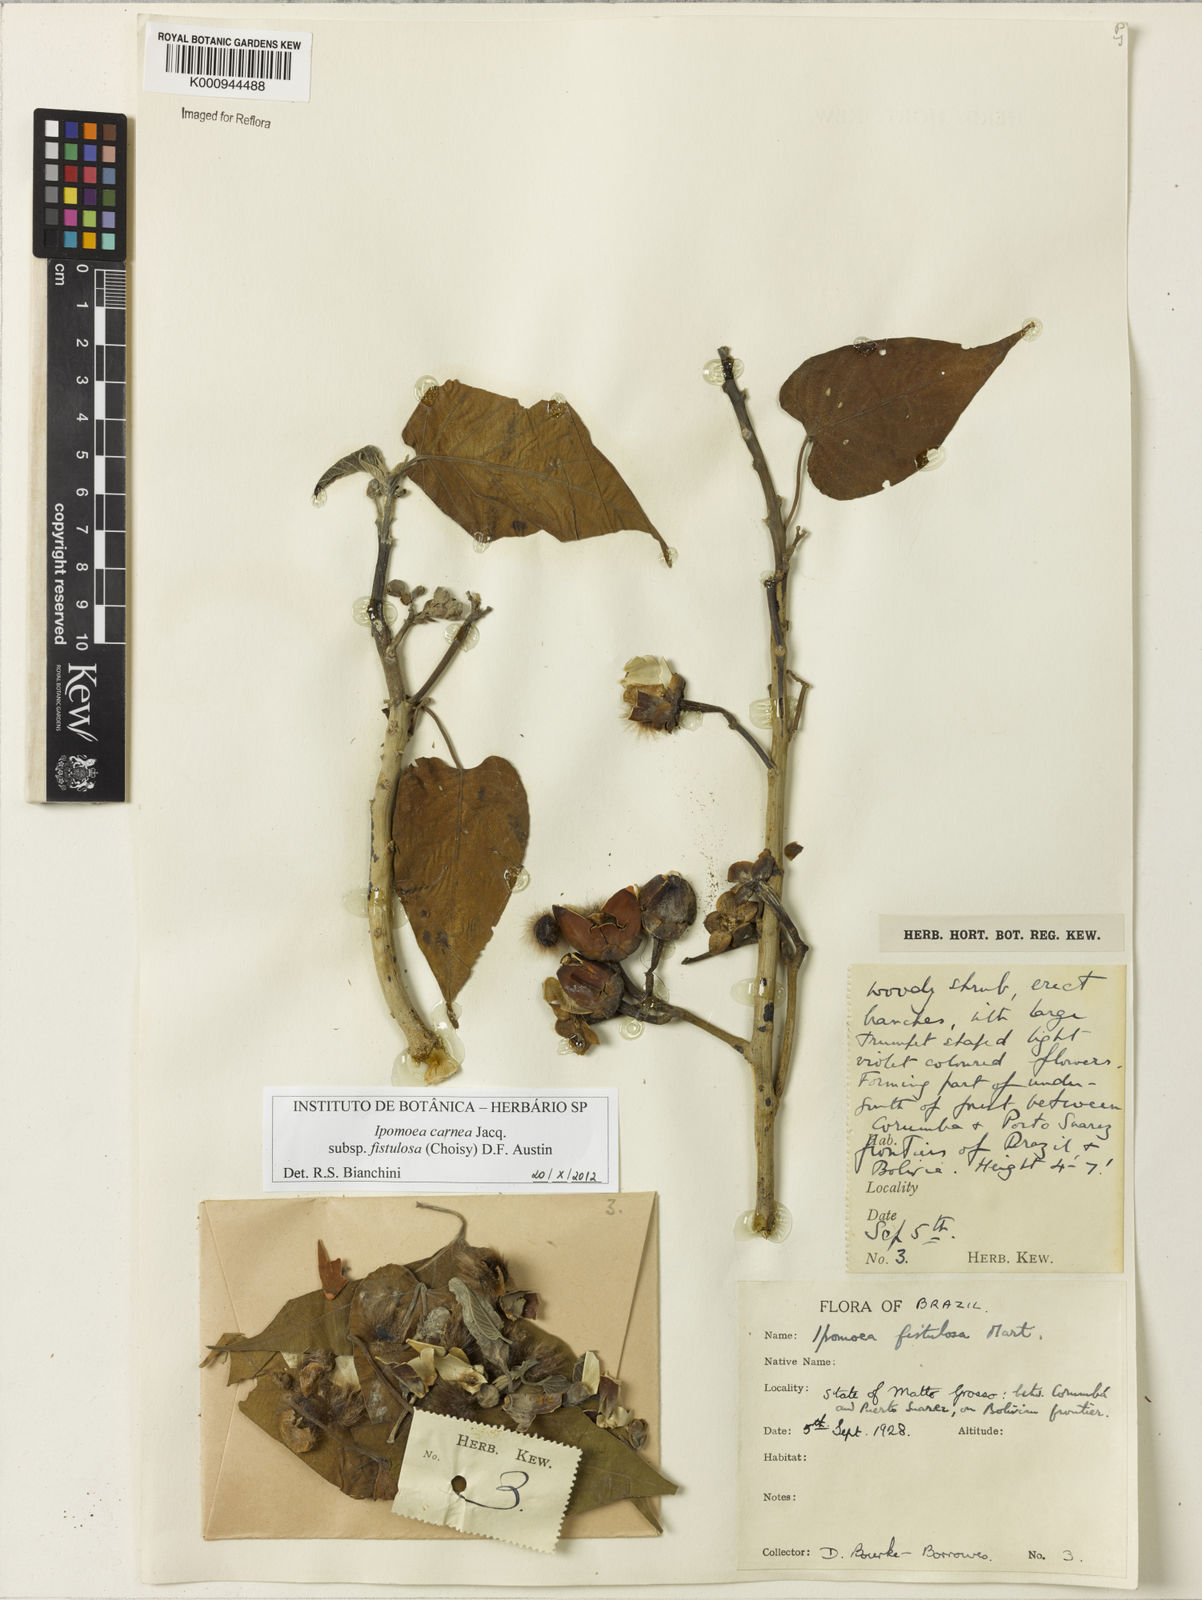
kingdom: Plantae
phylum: Tracheophyta
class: Magnoliopsida
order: Solanales
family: Convolvulaceae
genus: Ipomoea
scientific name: Ipomoea
